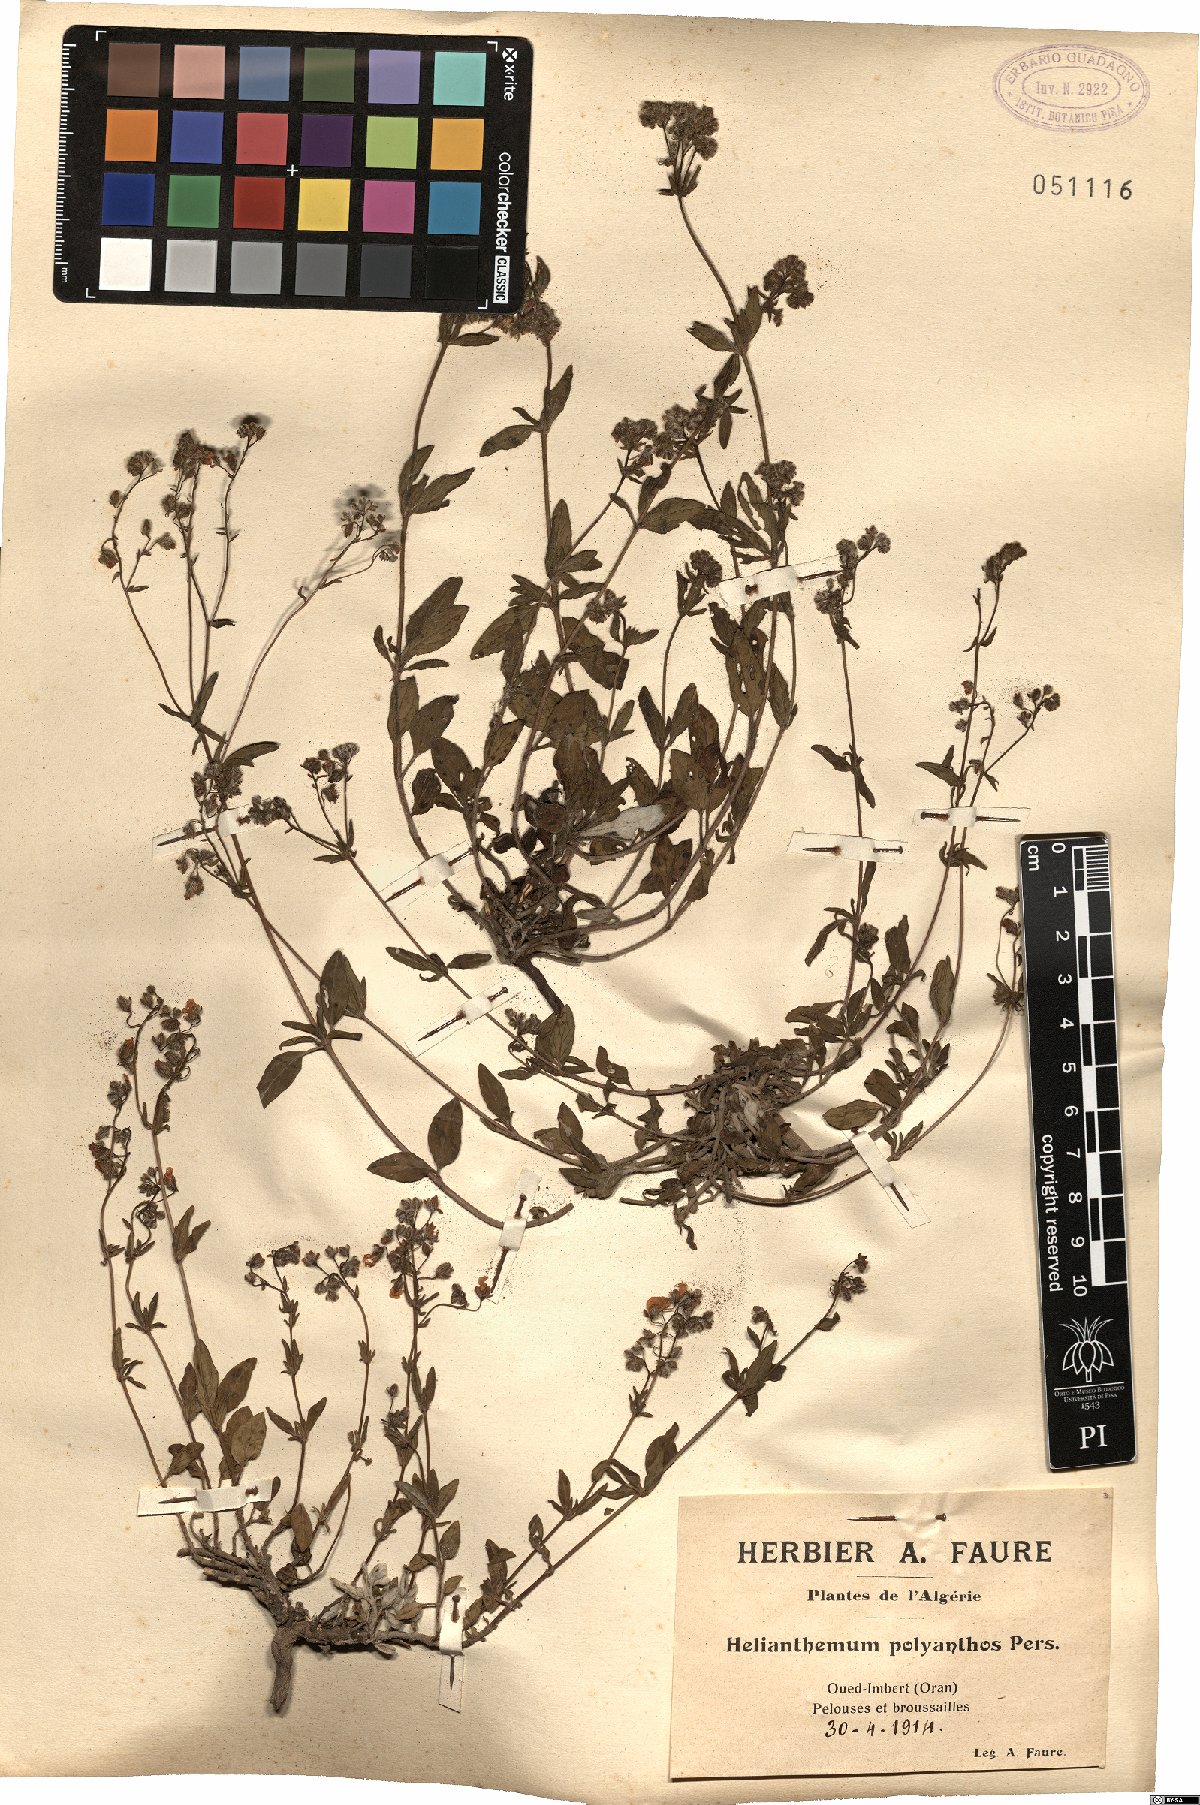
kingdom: Plantae
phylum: Tracheophyta
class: Magnoliopsida
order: Malvales
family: Cistaceae
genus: Helianthemum
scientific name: Helianthemum polyanthum
